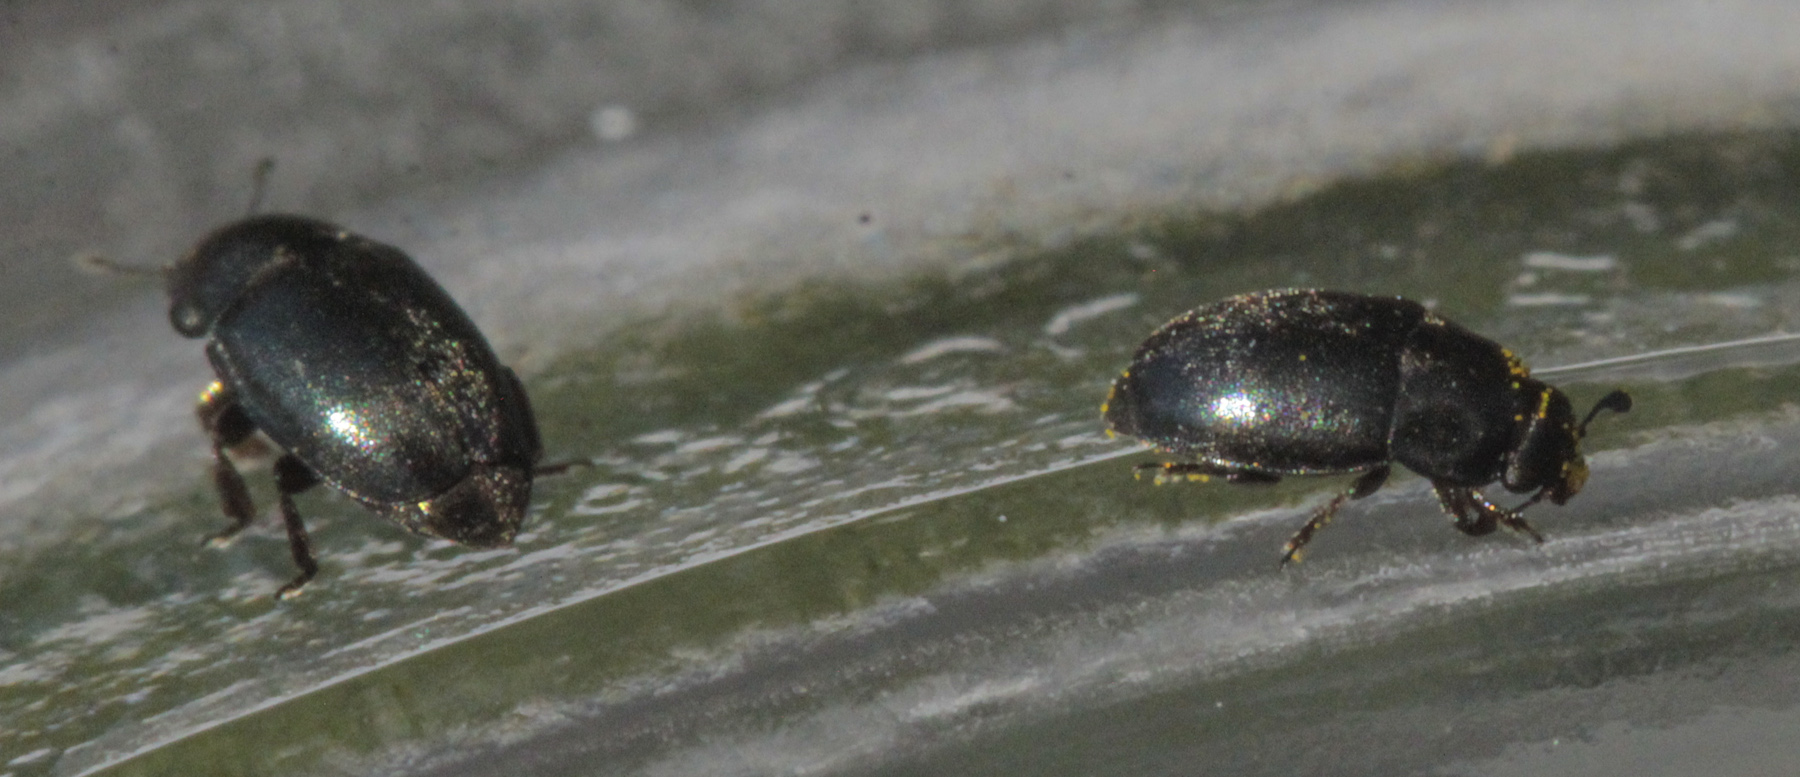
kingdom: Animalia
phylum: Arthropoda
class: Insecta
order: Coleoptera
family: Nitidulidae
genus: Meligethes
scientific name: Meligethes
